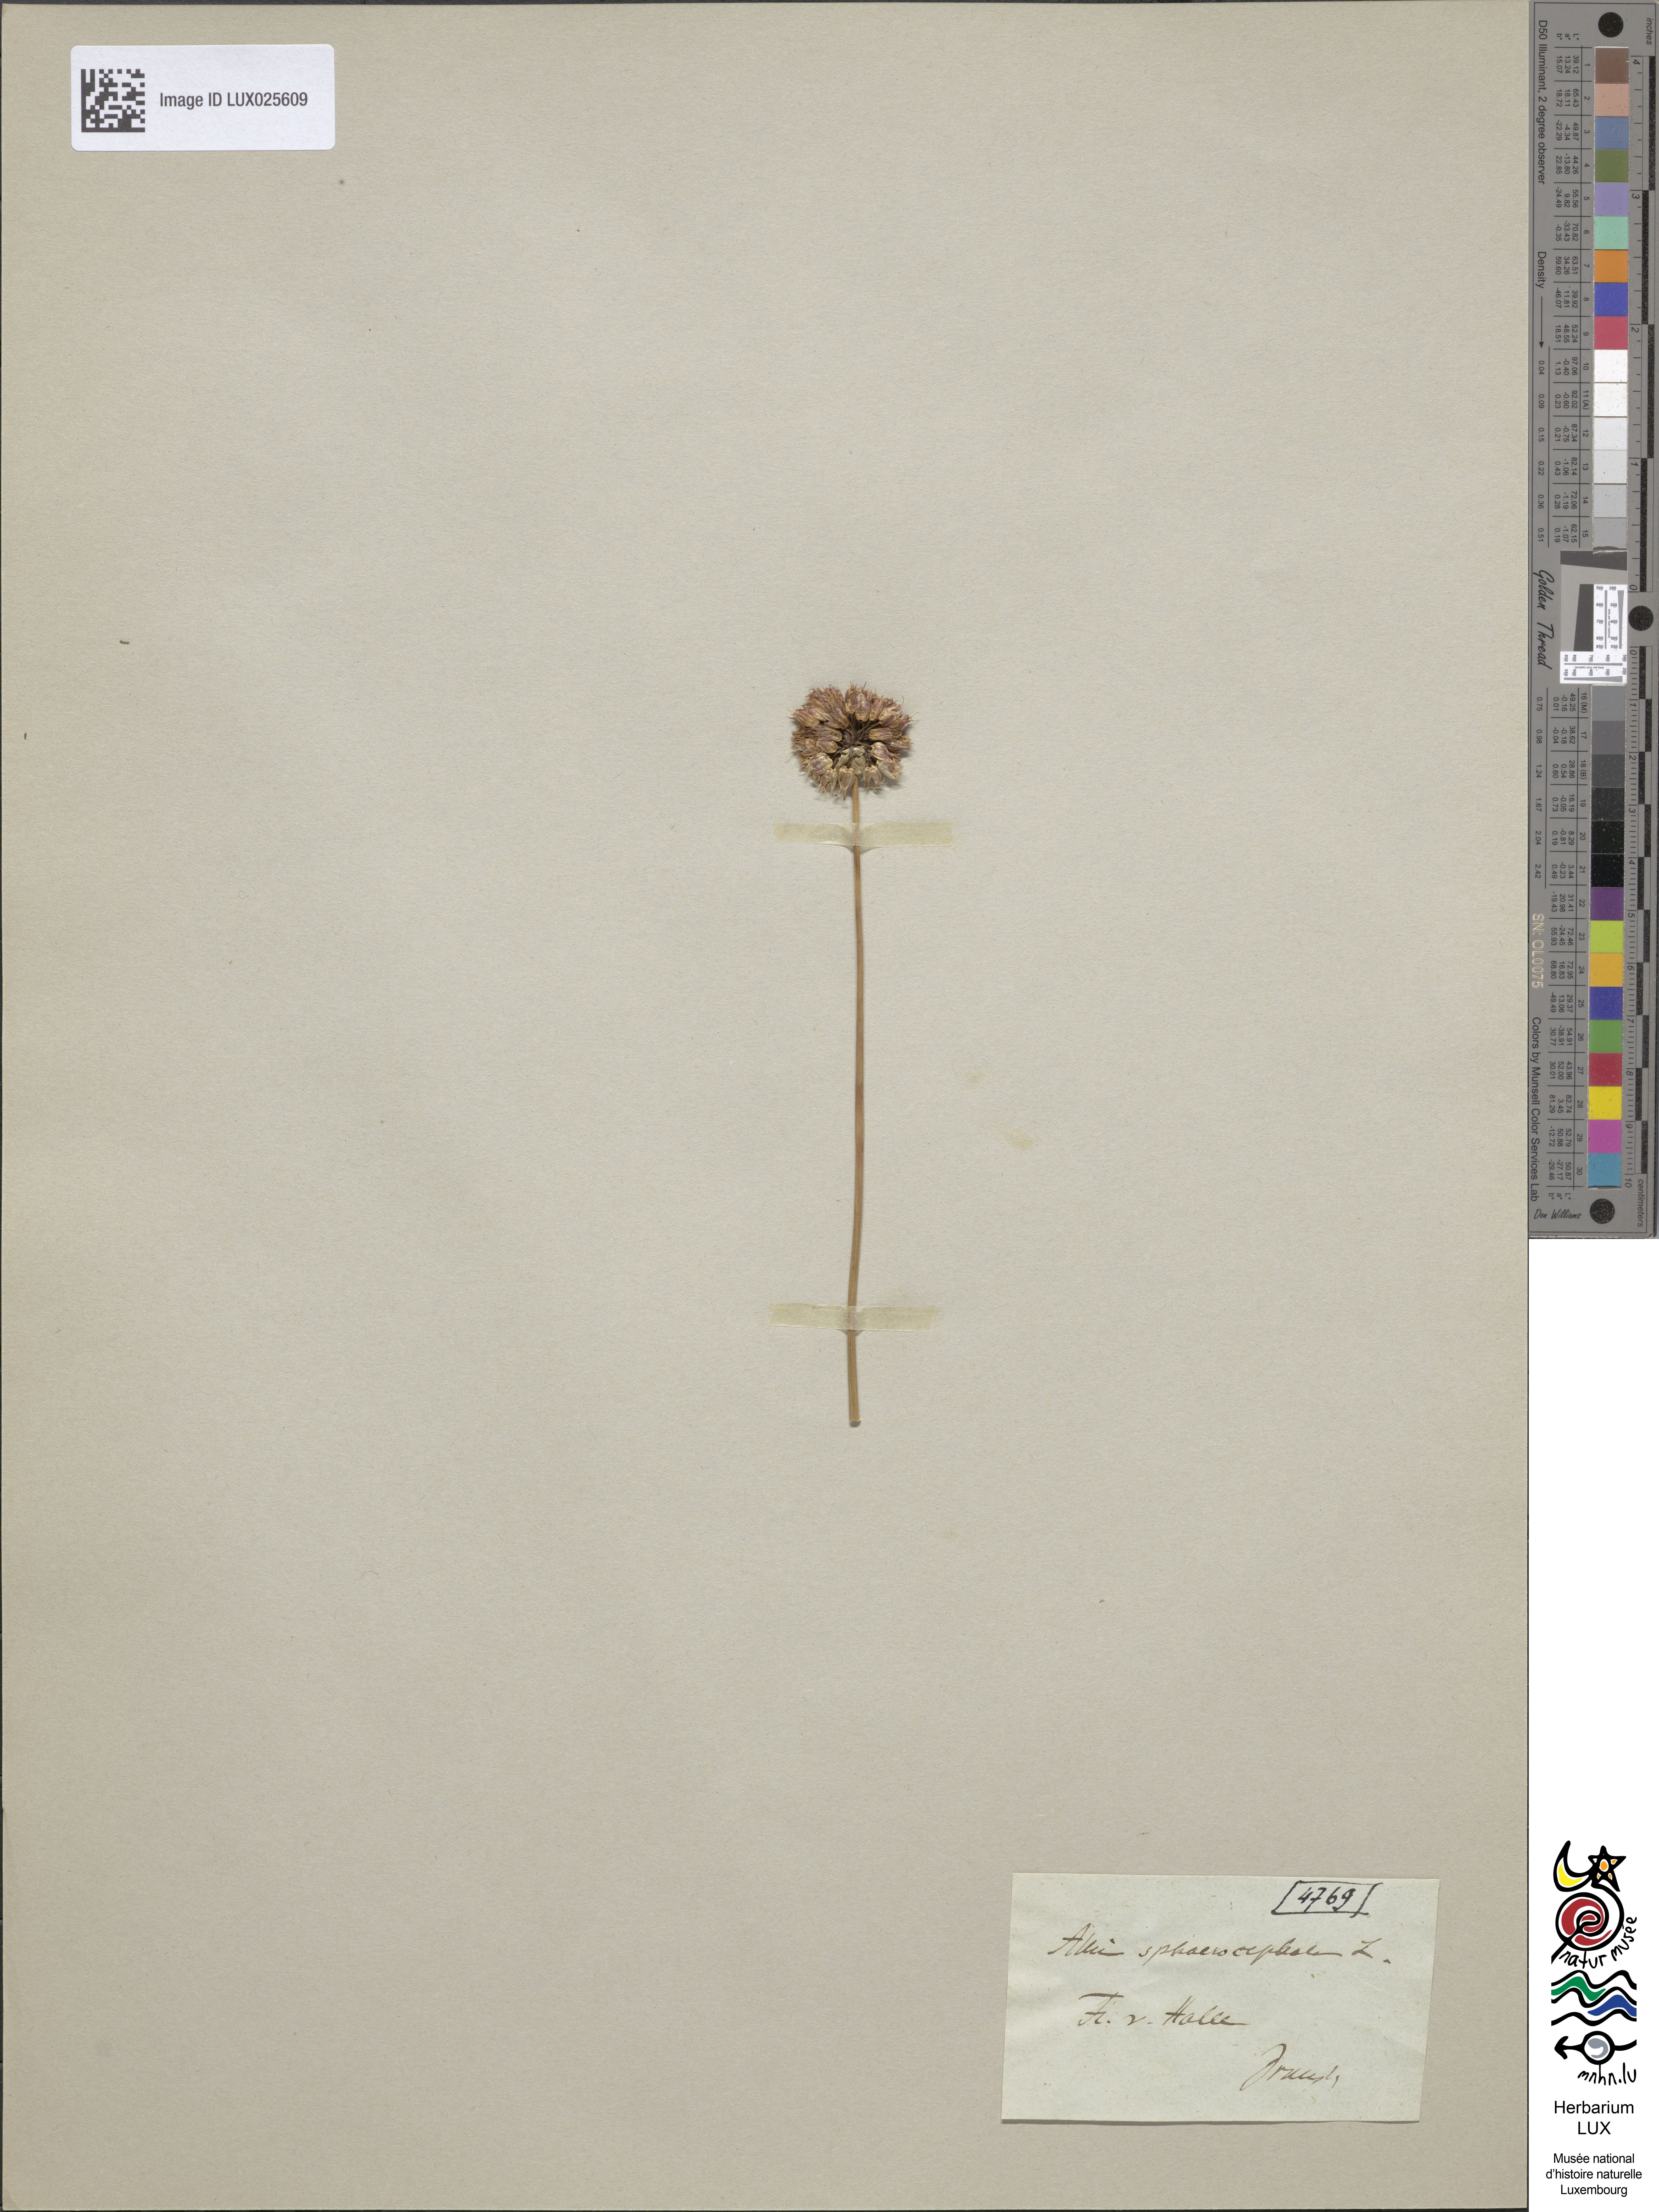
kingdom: Plantae
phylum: Tracheophyta
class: Liliopsida
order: Asparagales
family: Amaryllidaceae
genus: Allium
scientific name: Allium sphaerocephalon
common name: Round-headed leek
